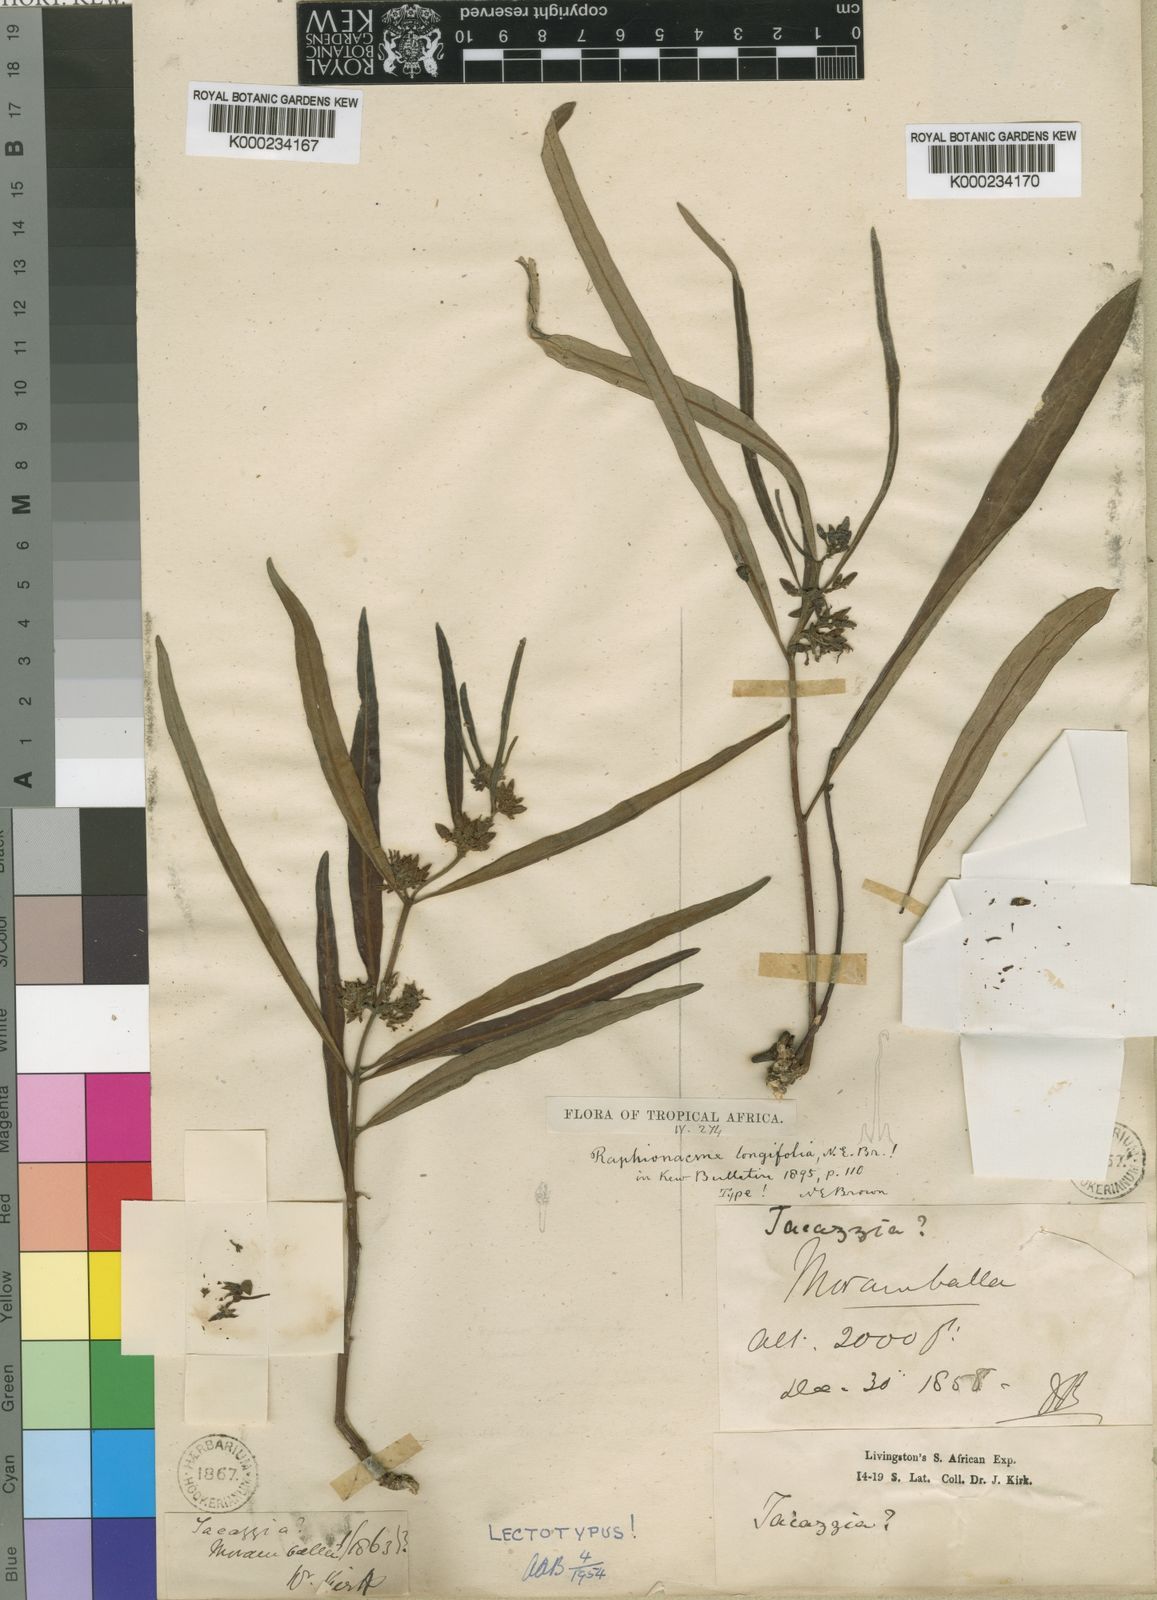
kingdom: Plantae
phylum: Tracheophyta
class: Magnoliopsida
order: Gentianales
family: Apocynaceae
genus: Raphionacme
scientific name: Raphionacme longifolia
